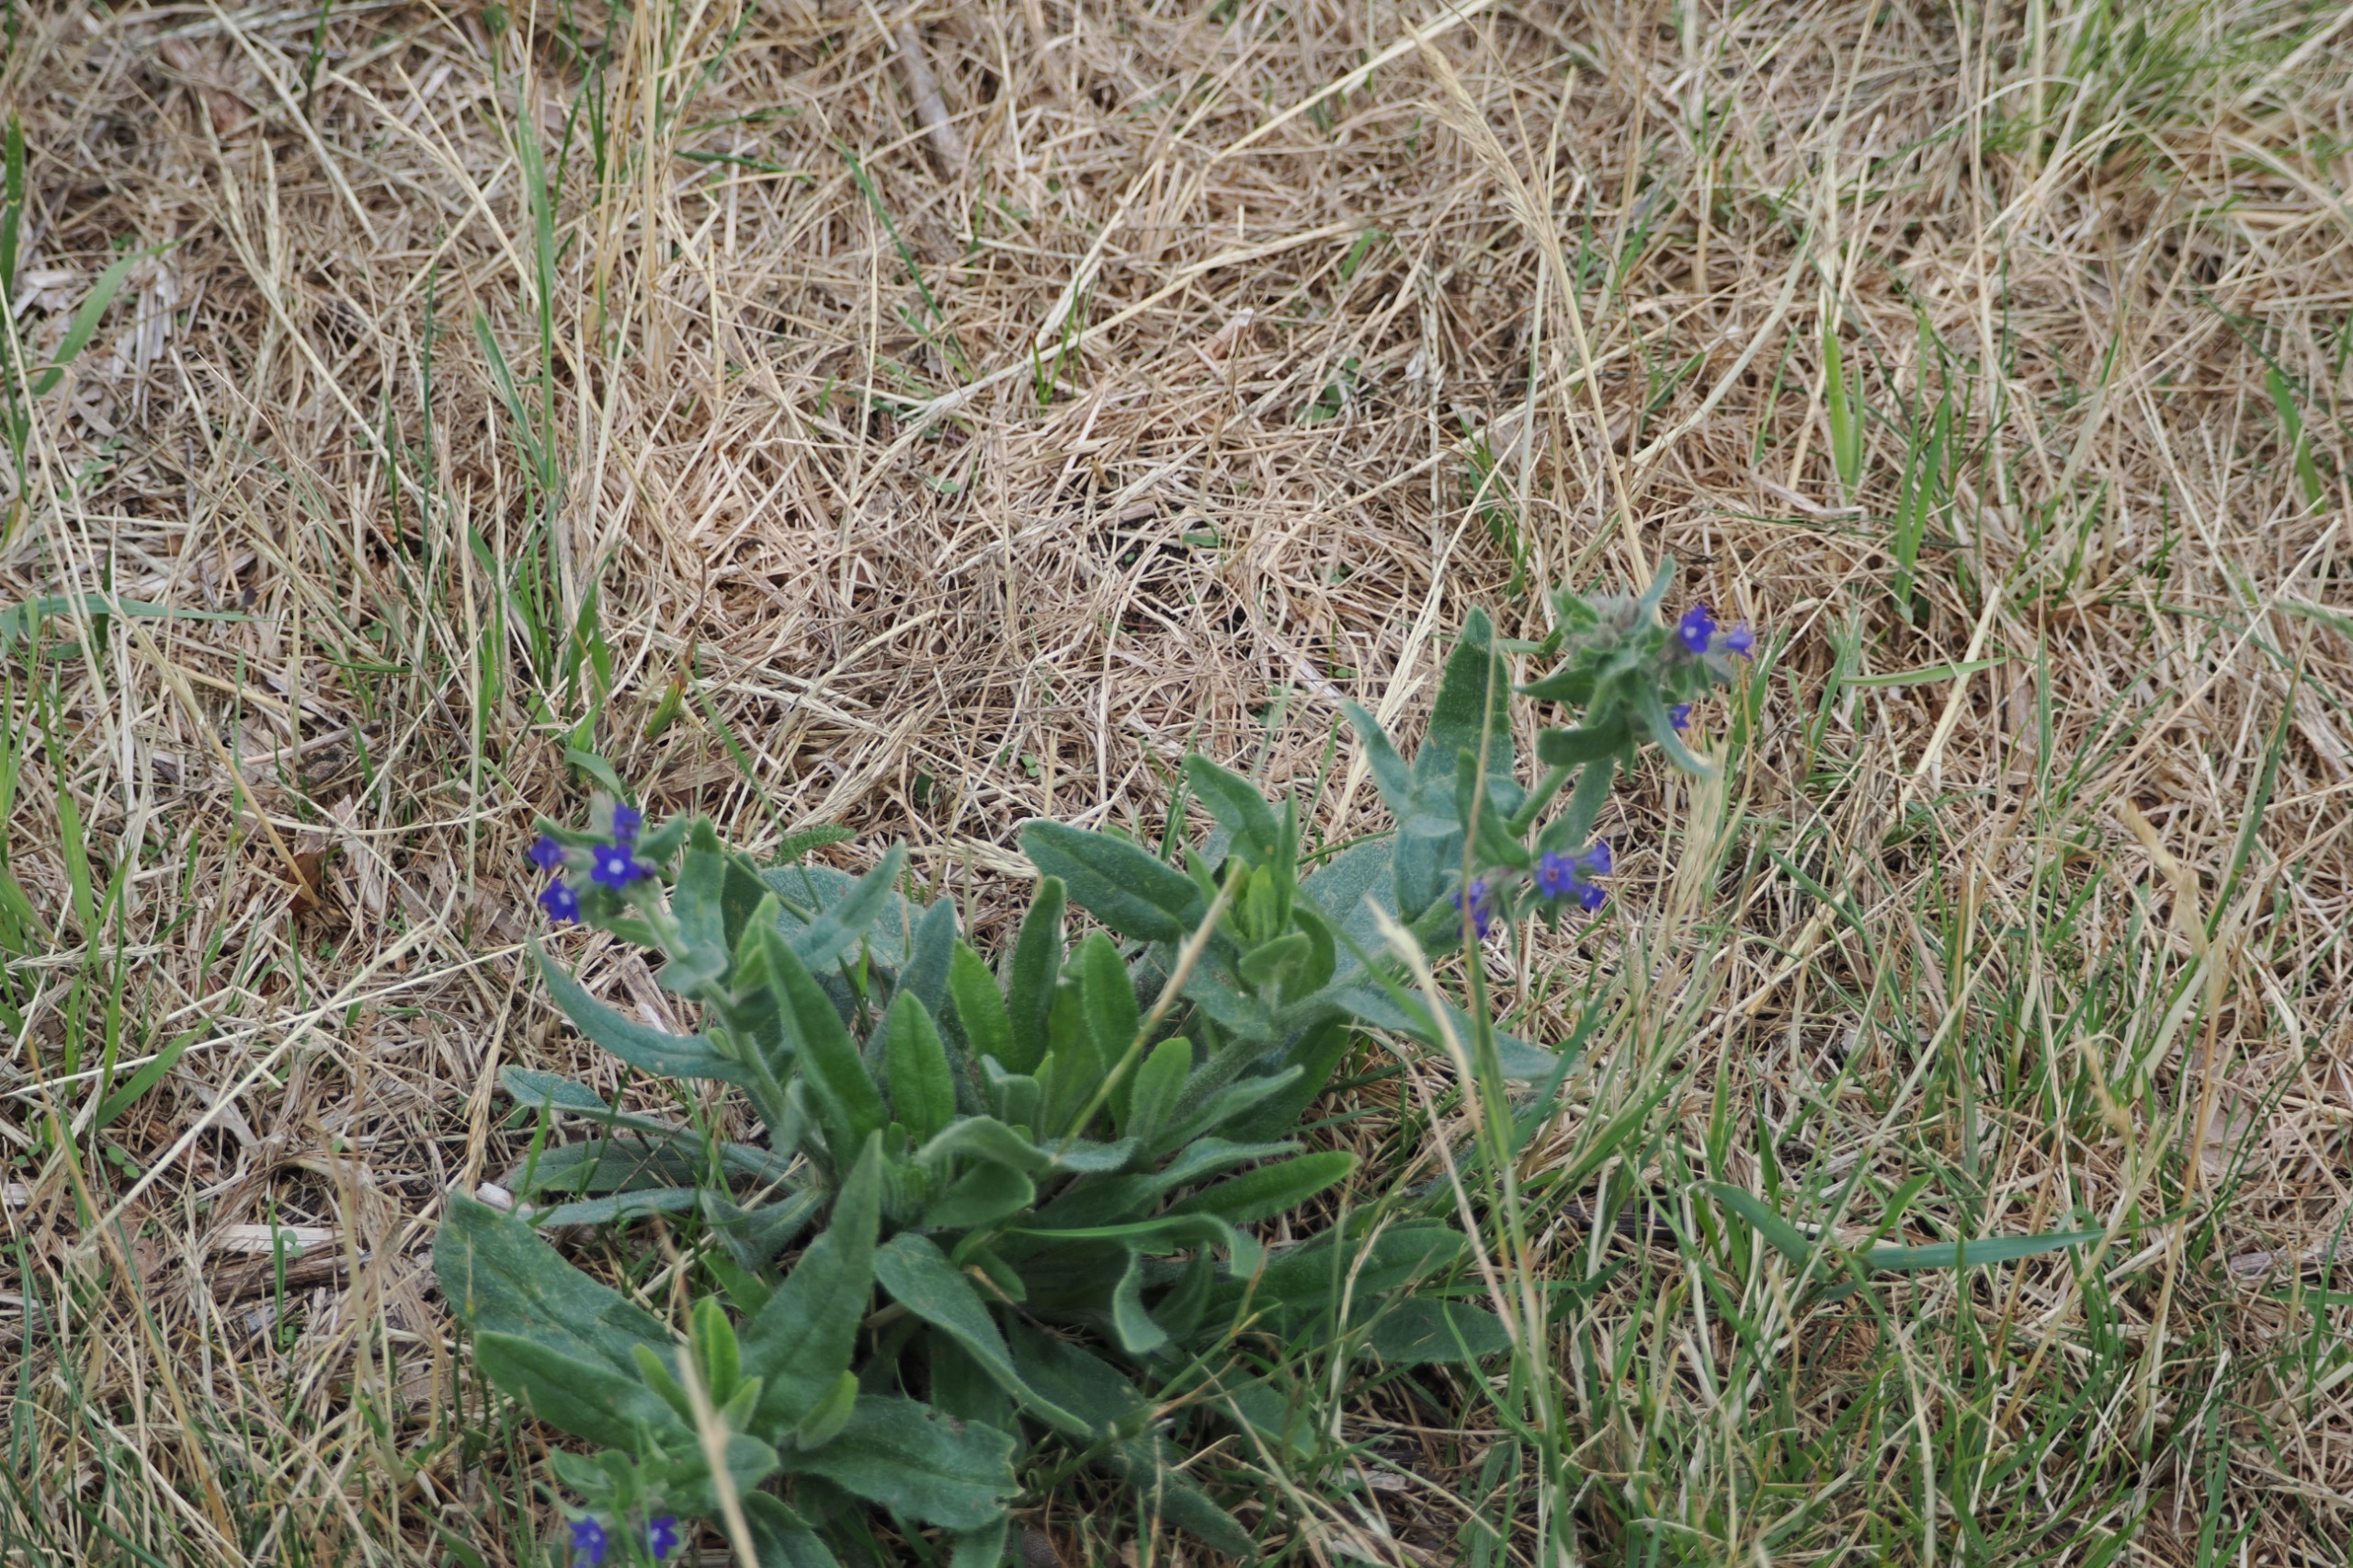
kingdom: Plantae
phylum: Tracheophyta
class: Magnoliopsida
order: Boraginales
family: Boraginaceae
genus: Anchusa
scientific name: Anchusa officinalis
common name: Læge-oksetunge
